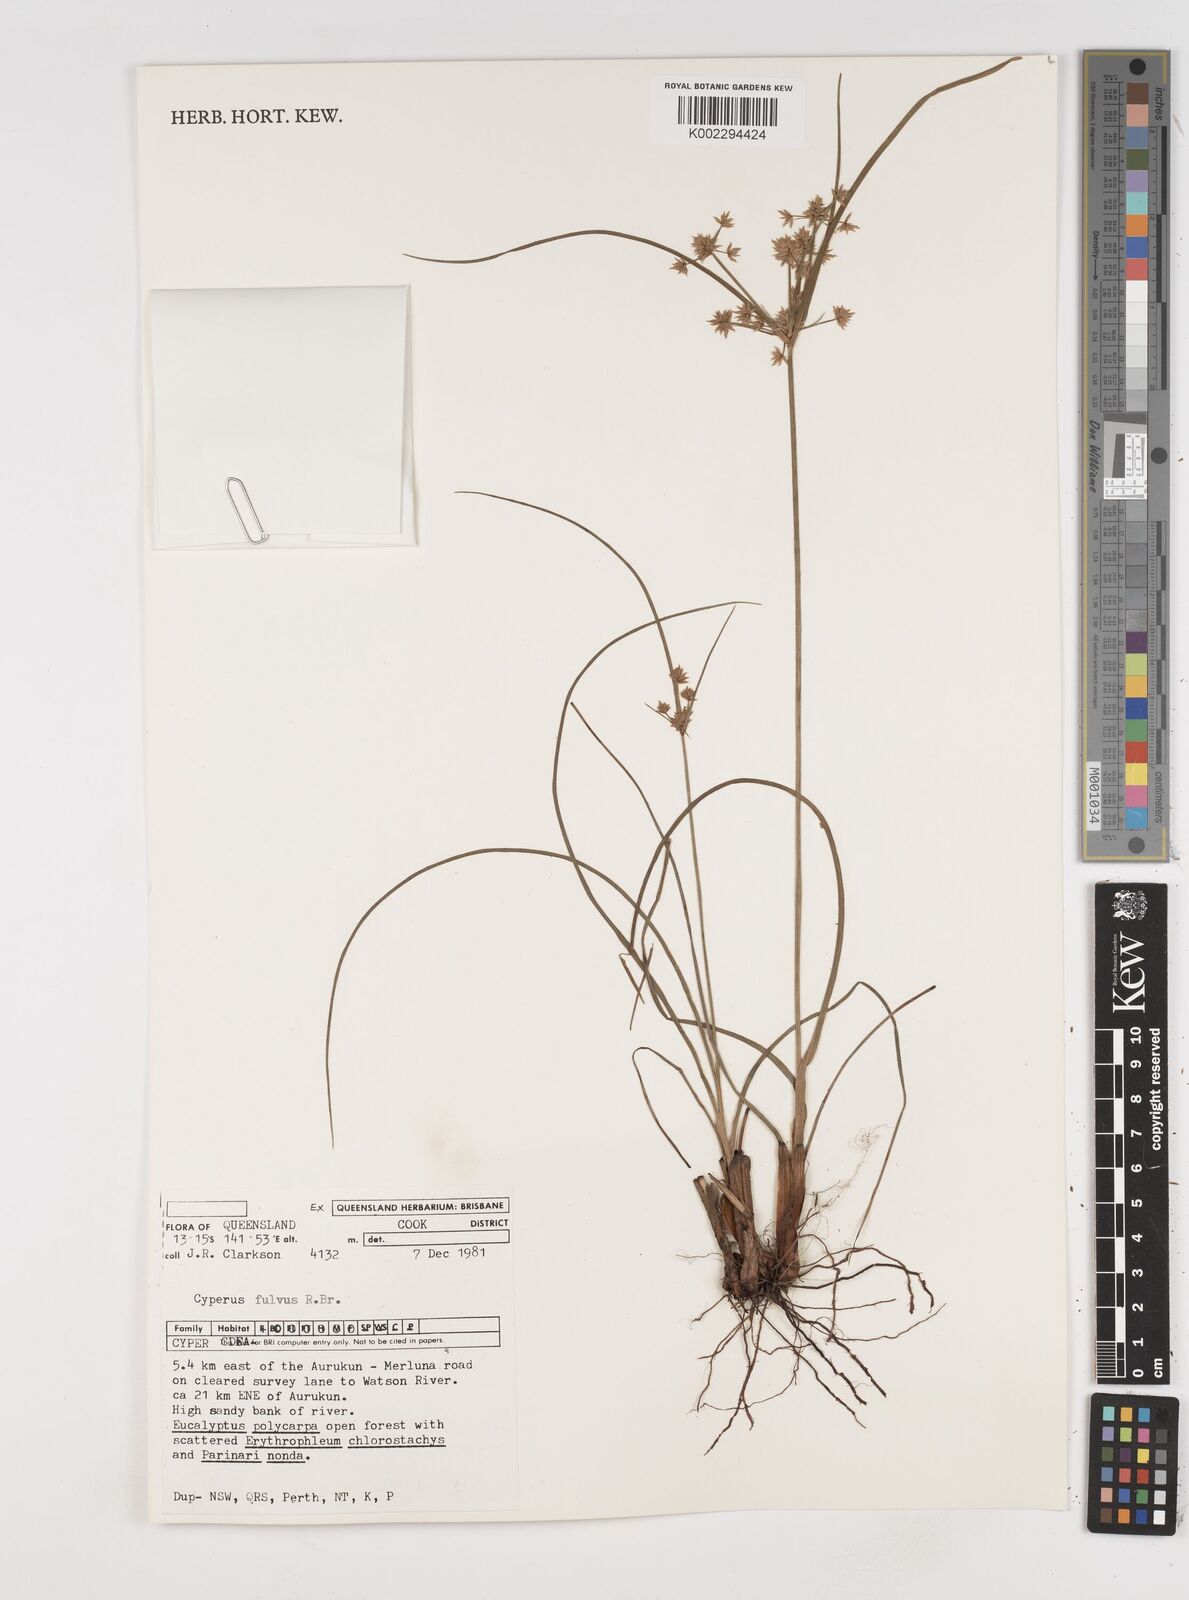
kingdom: Plantae
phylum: Tracheophyta
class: Liliopsida
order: Poales
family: Cyperaceae
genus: Cyperus
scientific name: Cyperus fulvus
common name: Sticky sedge
